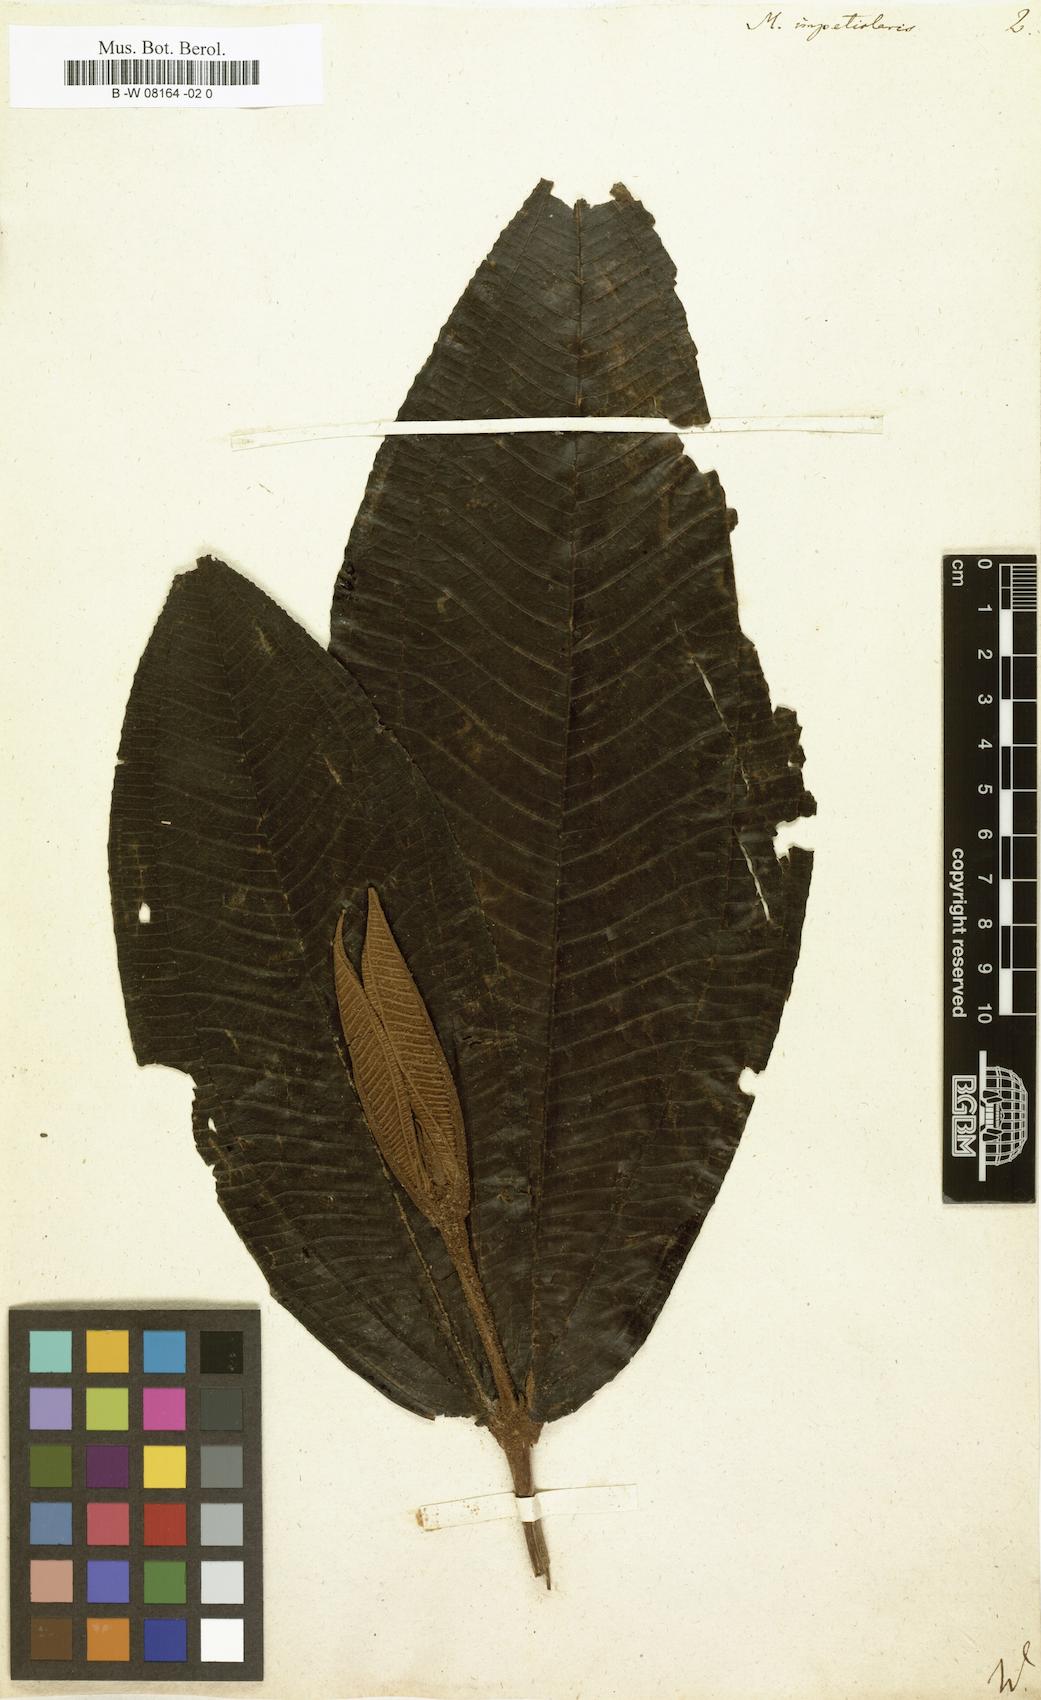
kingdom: Plantae
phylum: Tracheophyta
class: Magnoliopsida
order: Myrtales
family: Melastomataceae
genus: Miconia
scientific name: Miconia impetiolaris
